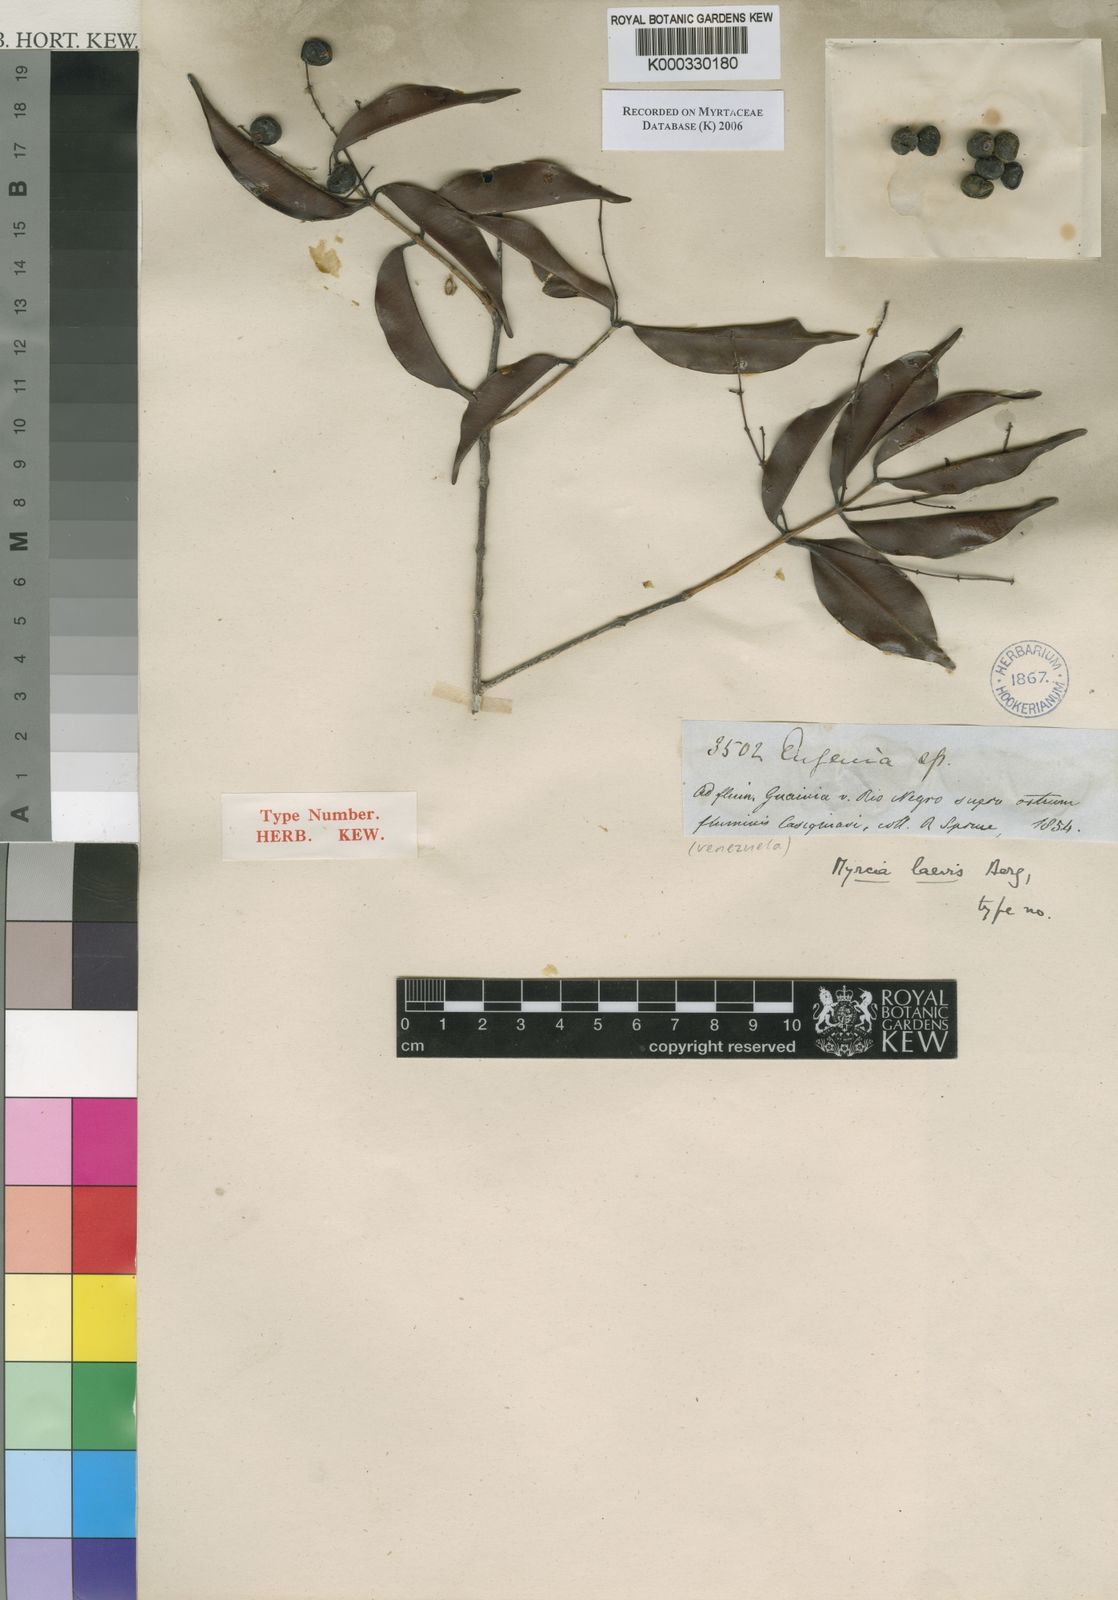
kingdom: Plantae
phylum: Tracheophyta
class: Magnoliopsida
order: Myrtales
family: Myrtaceae
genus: Myrcia
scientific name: Myrcia lucida
